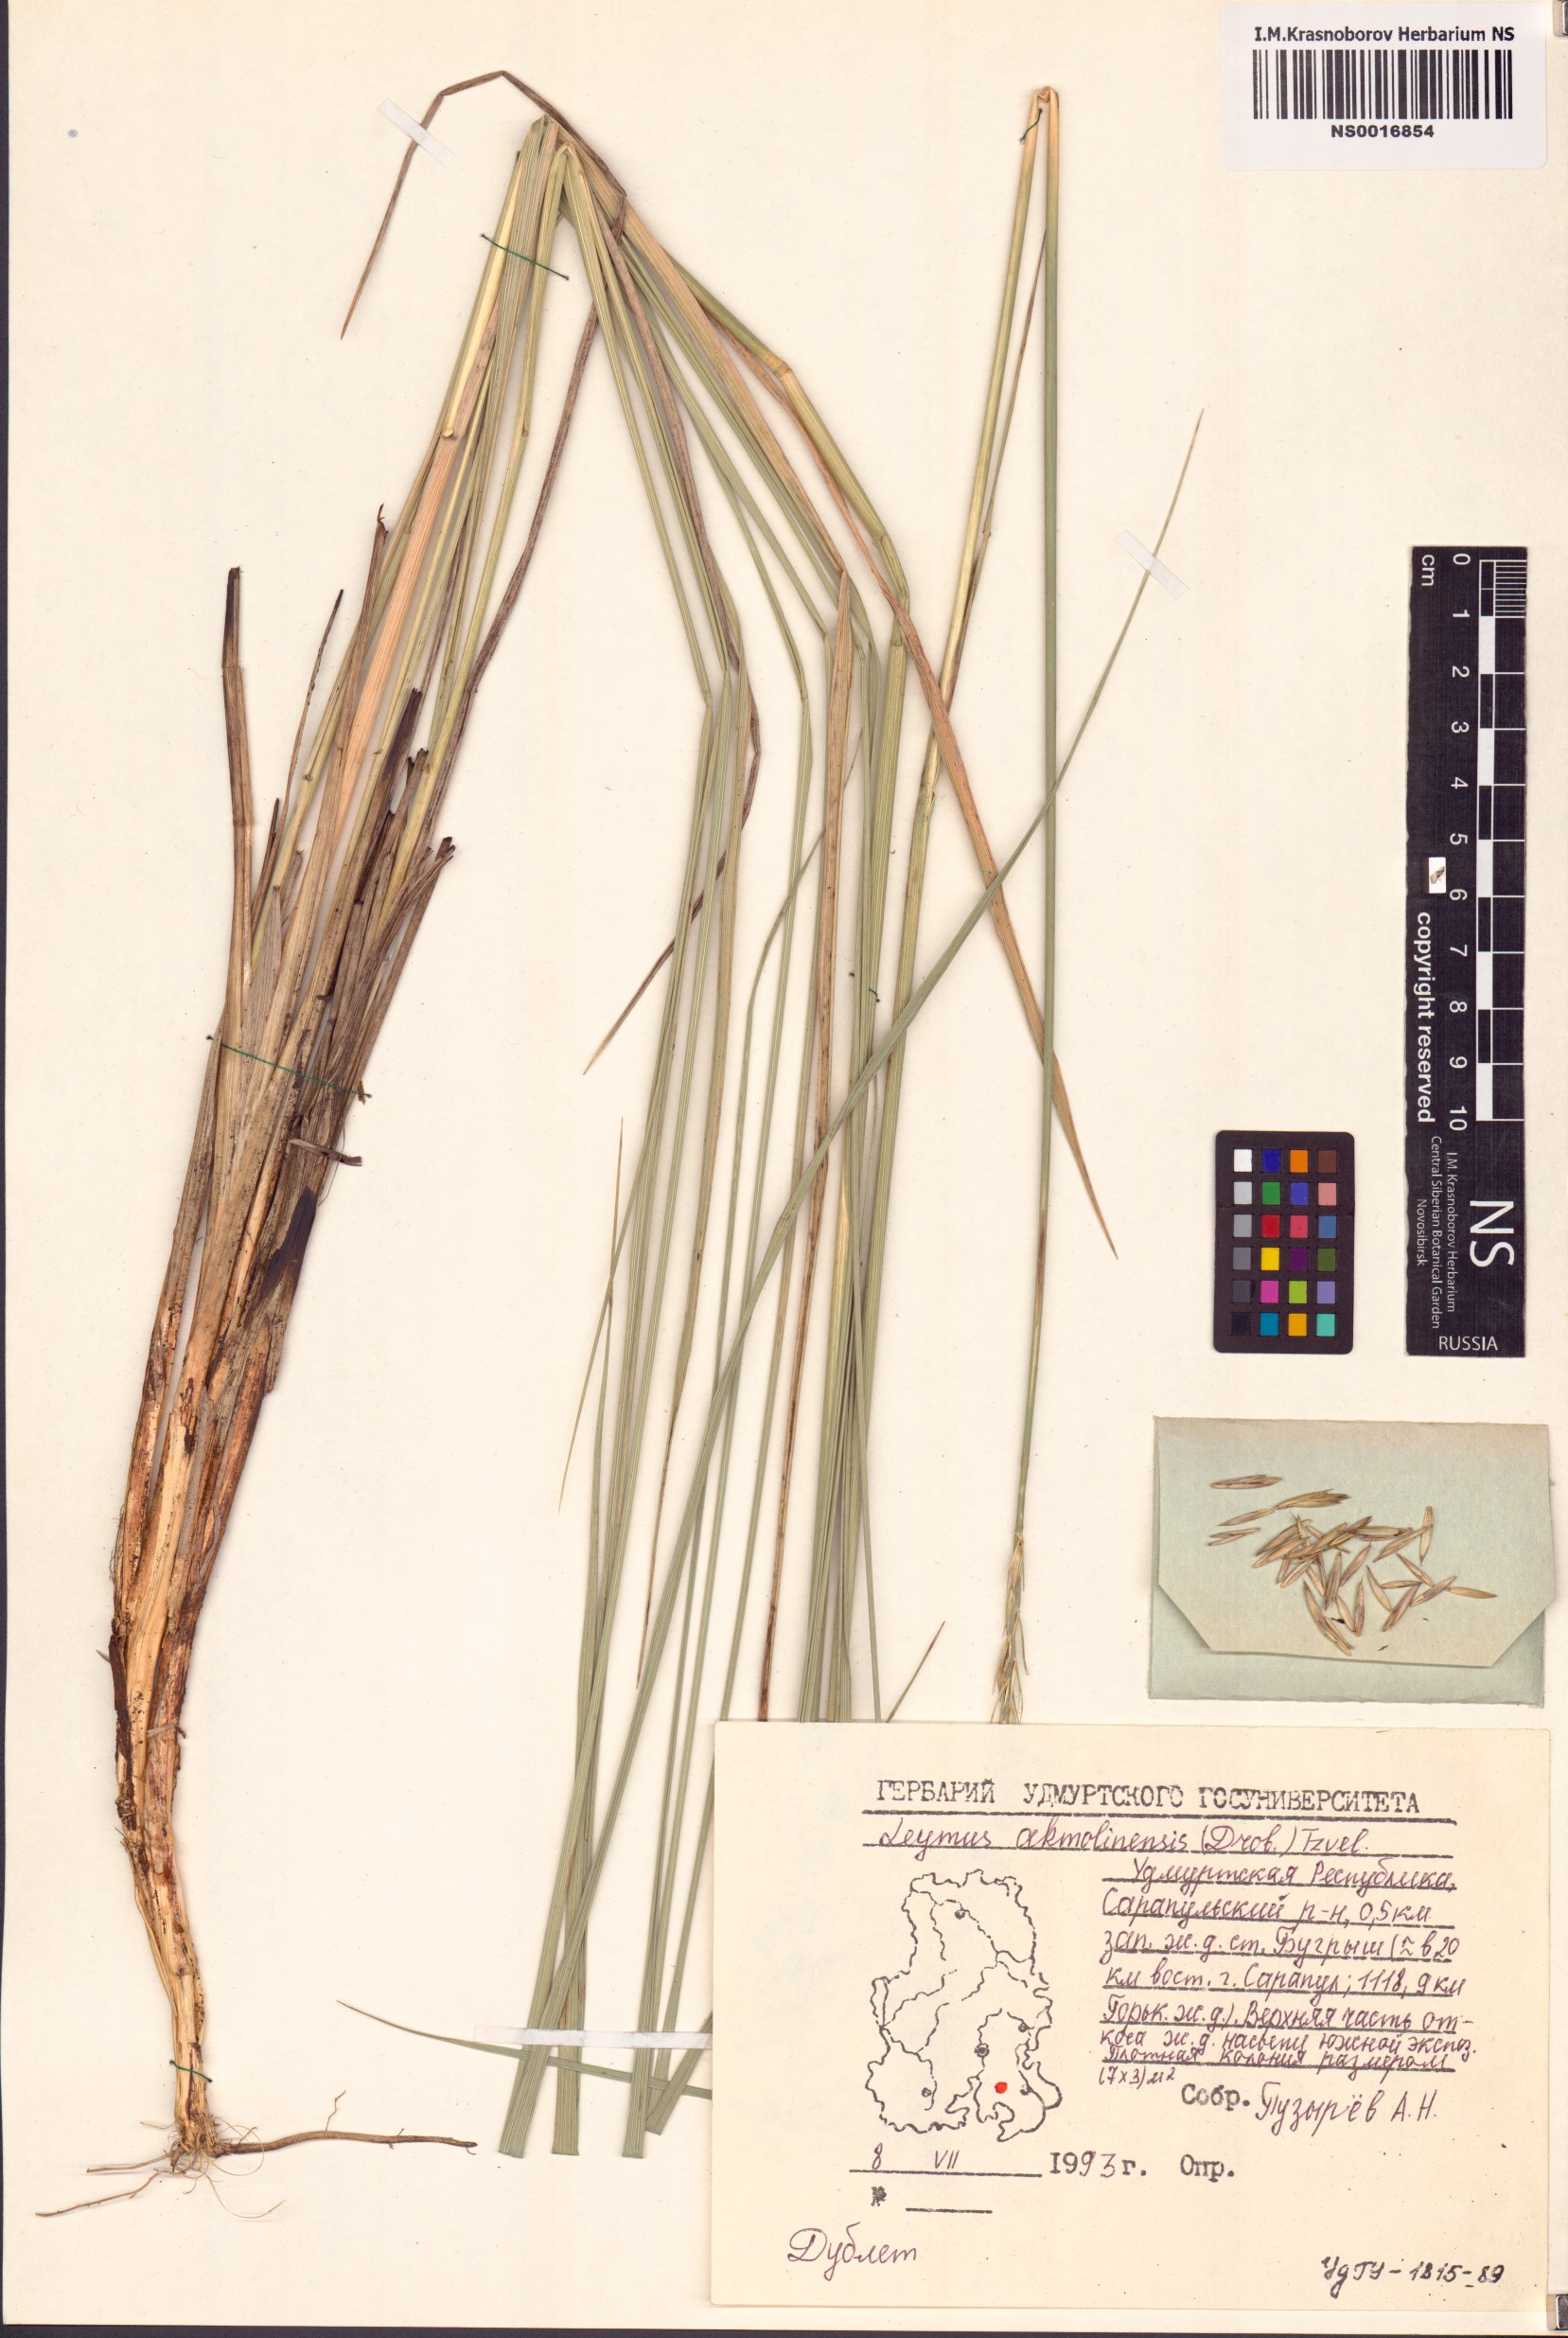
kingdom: Plantae
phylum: Tracheophyta
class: Liliopsida
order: Poales
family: Poaceae
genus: Leymus
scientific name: Leymus akmolinensis
